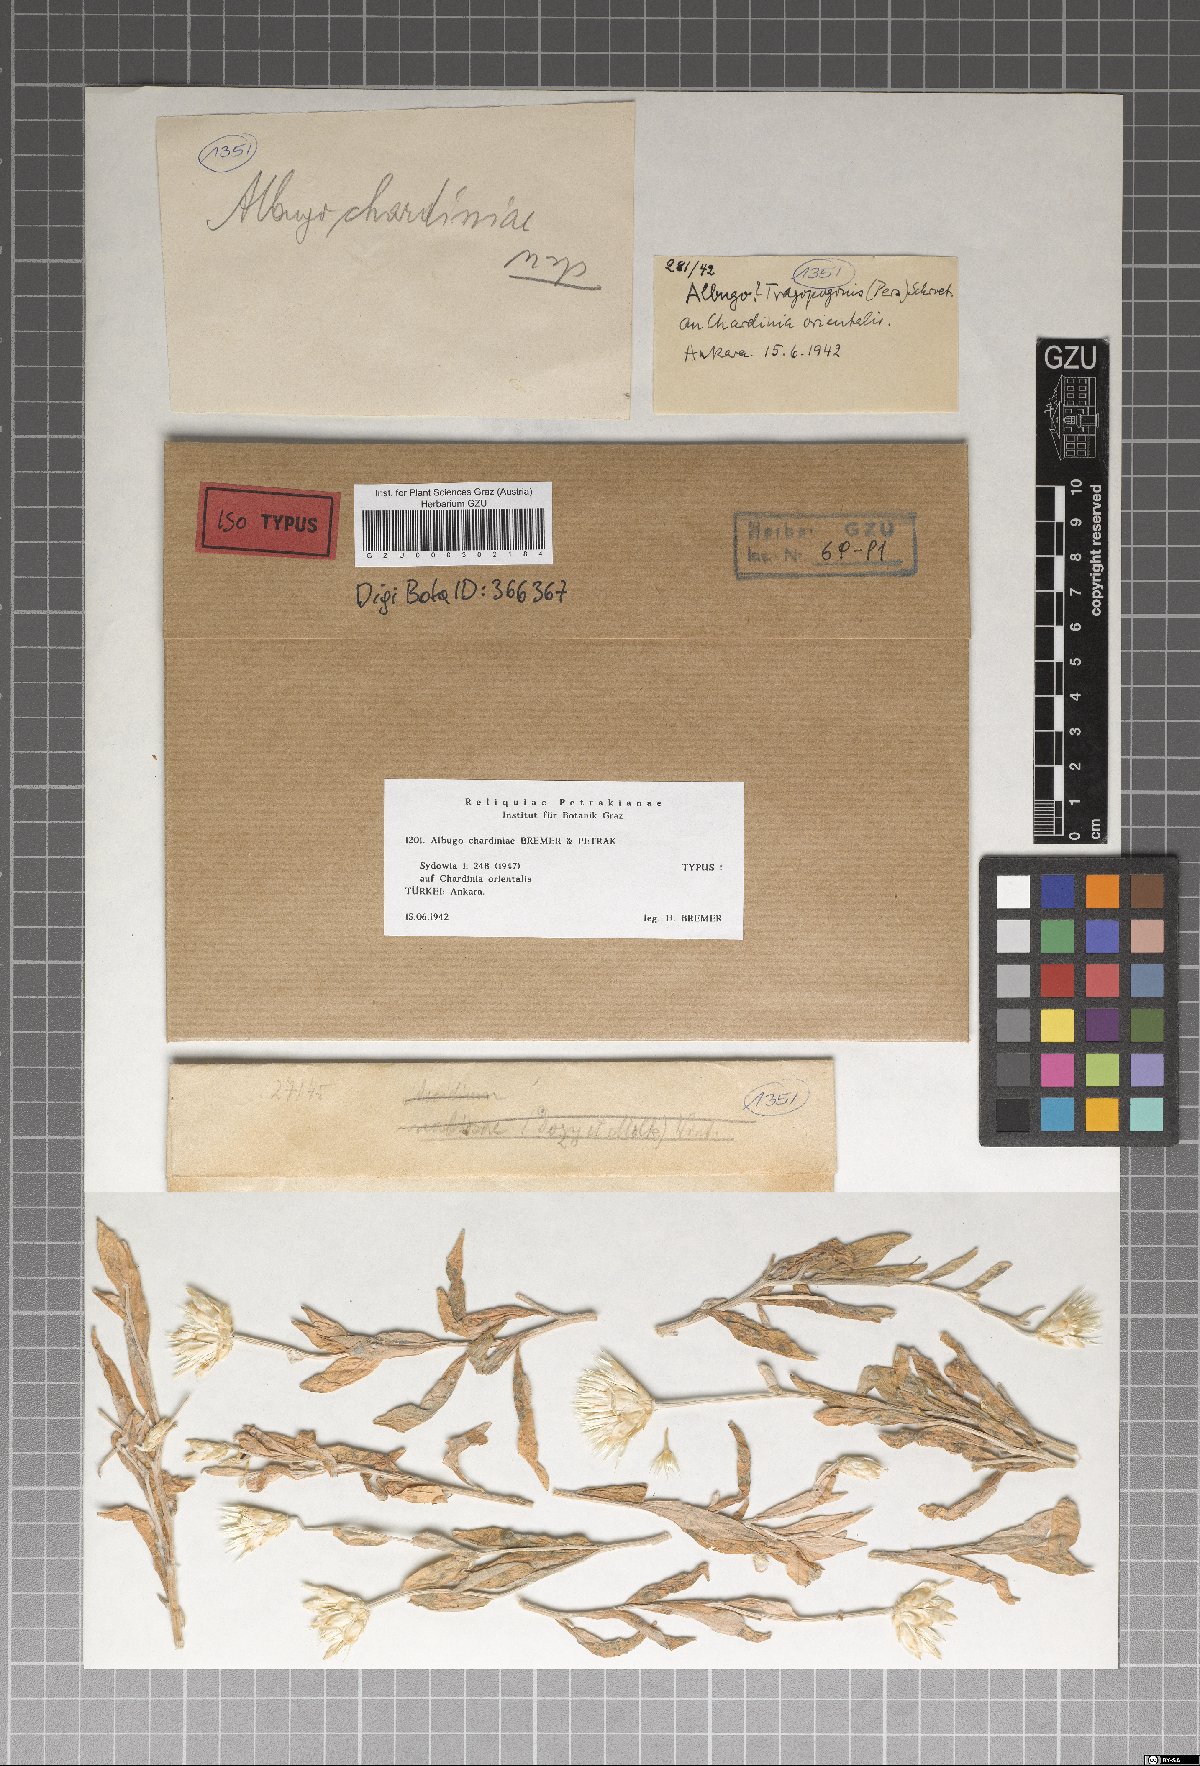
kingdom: Chromista
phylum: Oomycota
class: Peronosporea
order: Albuginales
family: Albuginaceae
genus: Pustula
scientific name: Pustula chardiniae
